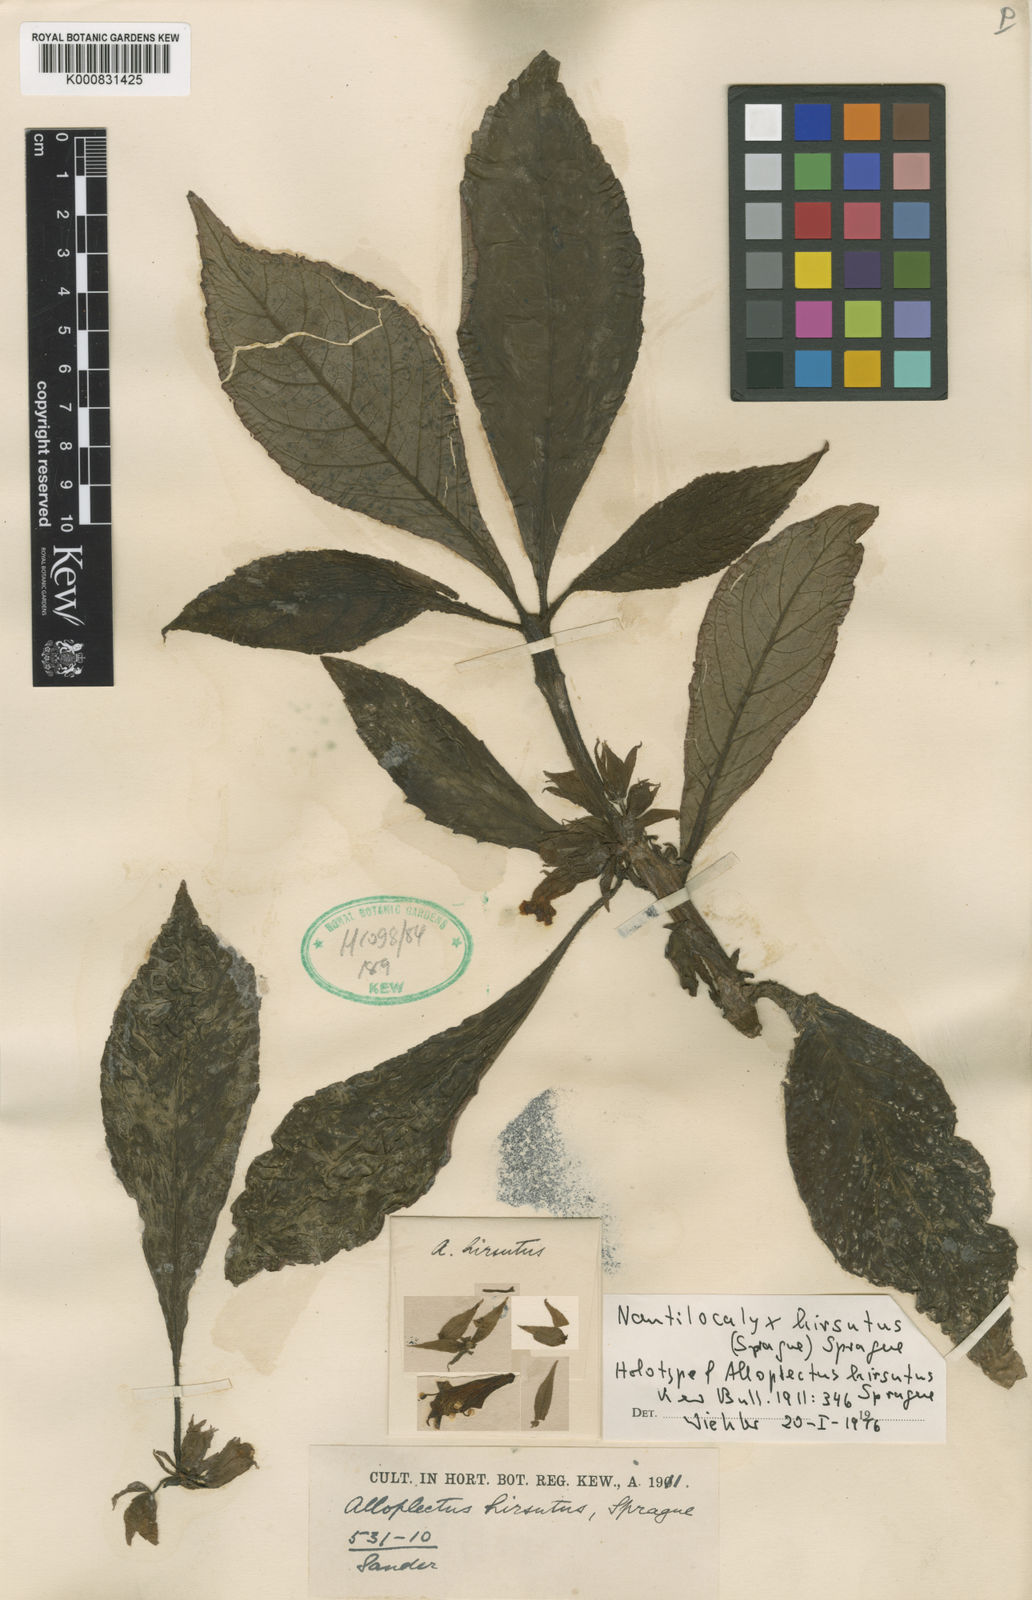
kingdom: Plantae
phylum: Tracheophyta
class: Magnoliopsida
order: Lamiales
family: Gesneriaceae
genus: Nautilocalyx
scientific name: Nautilocalyx hirsutus
